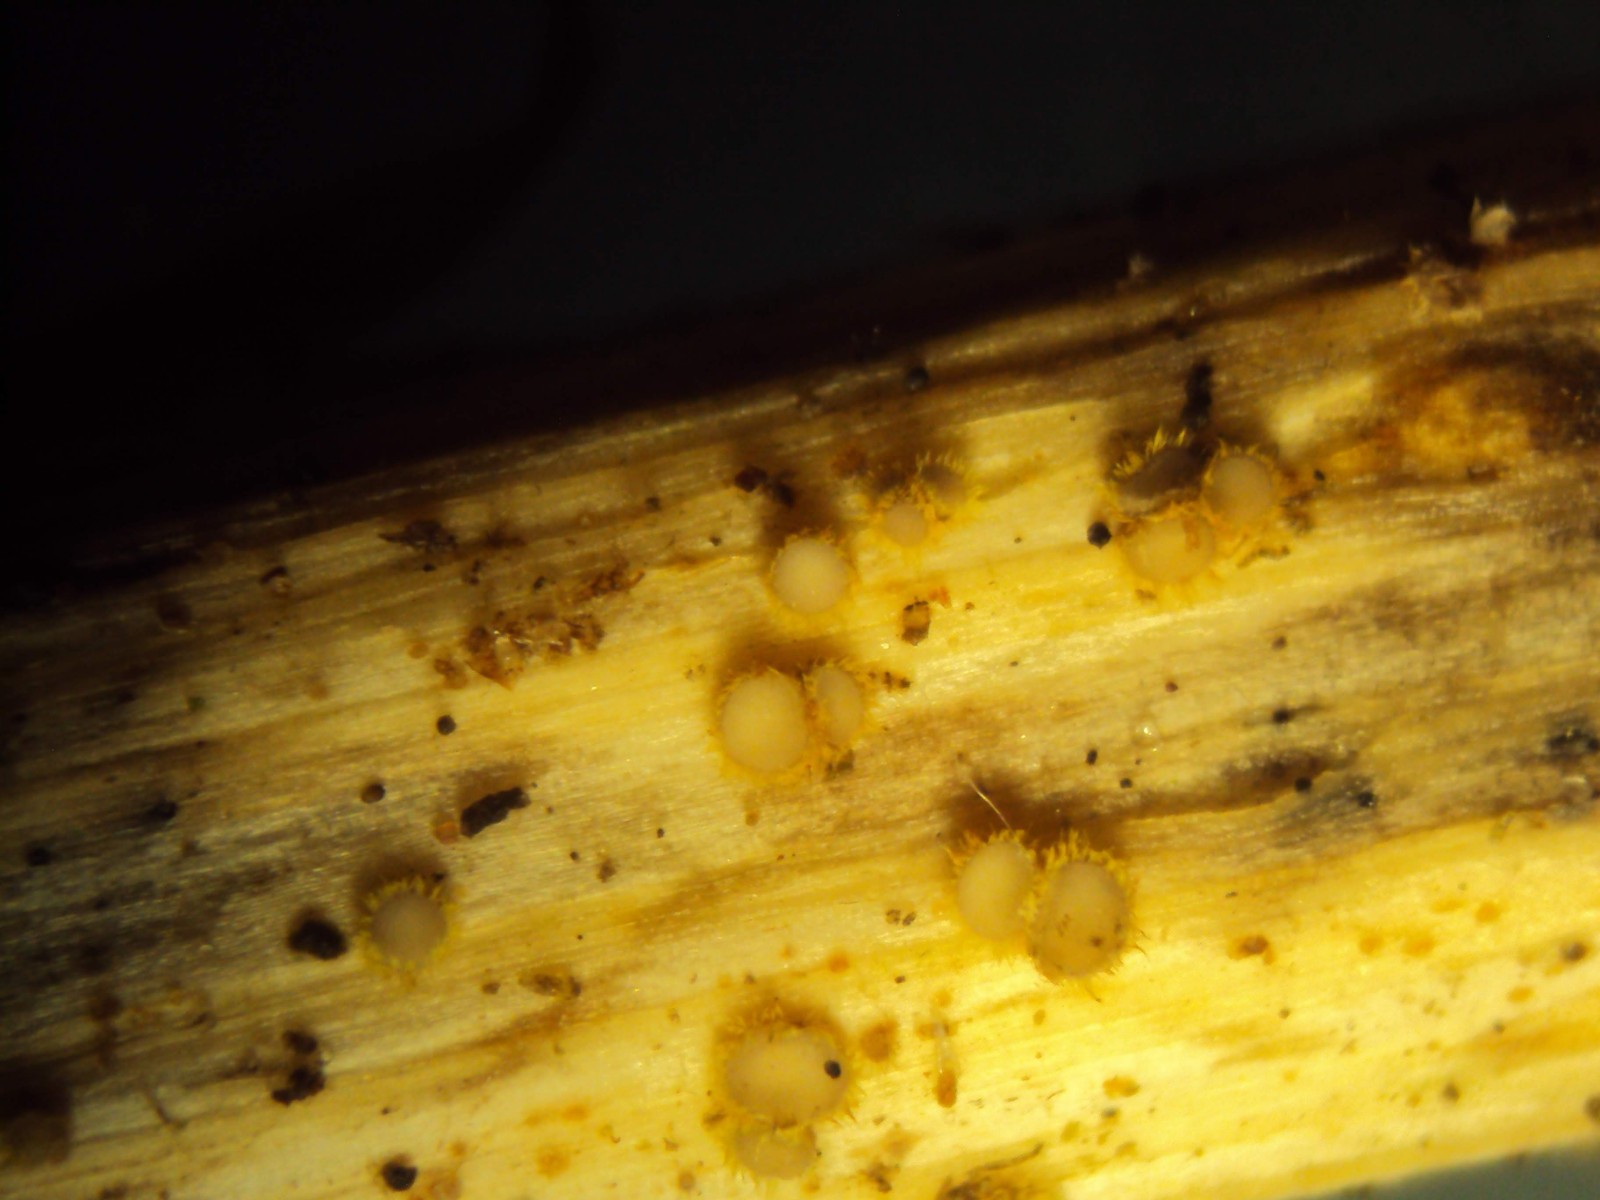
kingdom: Fungi
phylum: Ascomycota
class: Leotiomycetes
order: Helotiales
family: Lachnaceae
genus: Lachnum
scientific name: Lachnum sulphureum
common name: svovlhåret frynseskive
